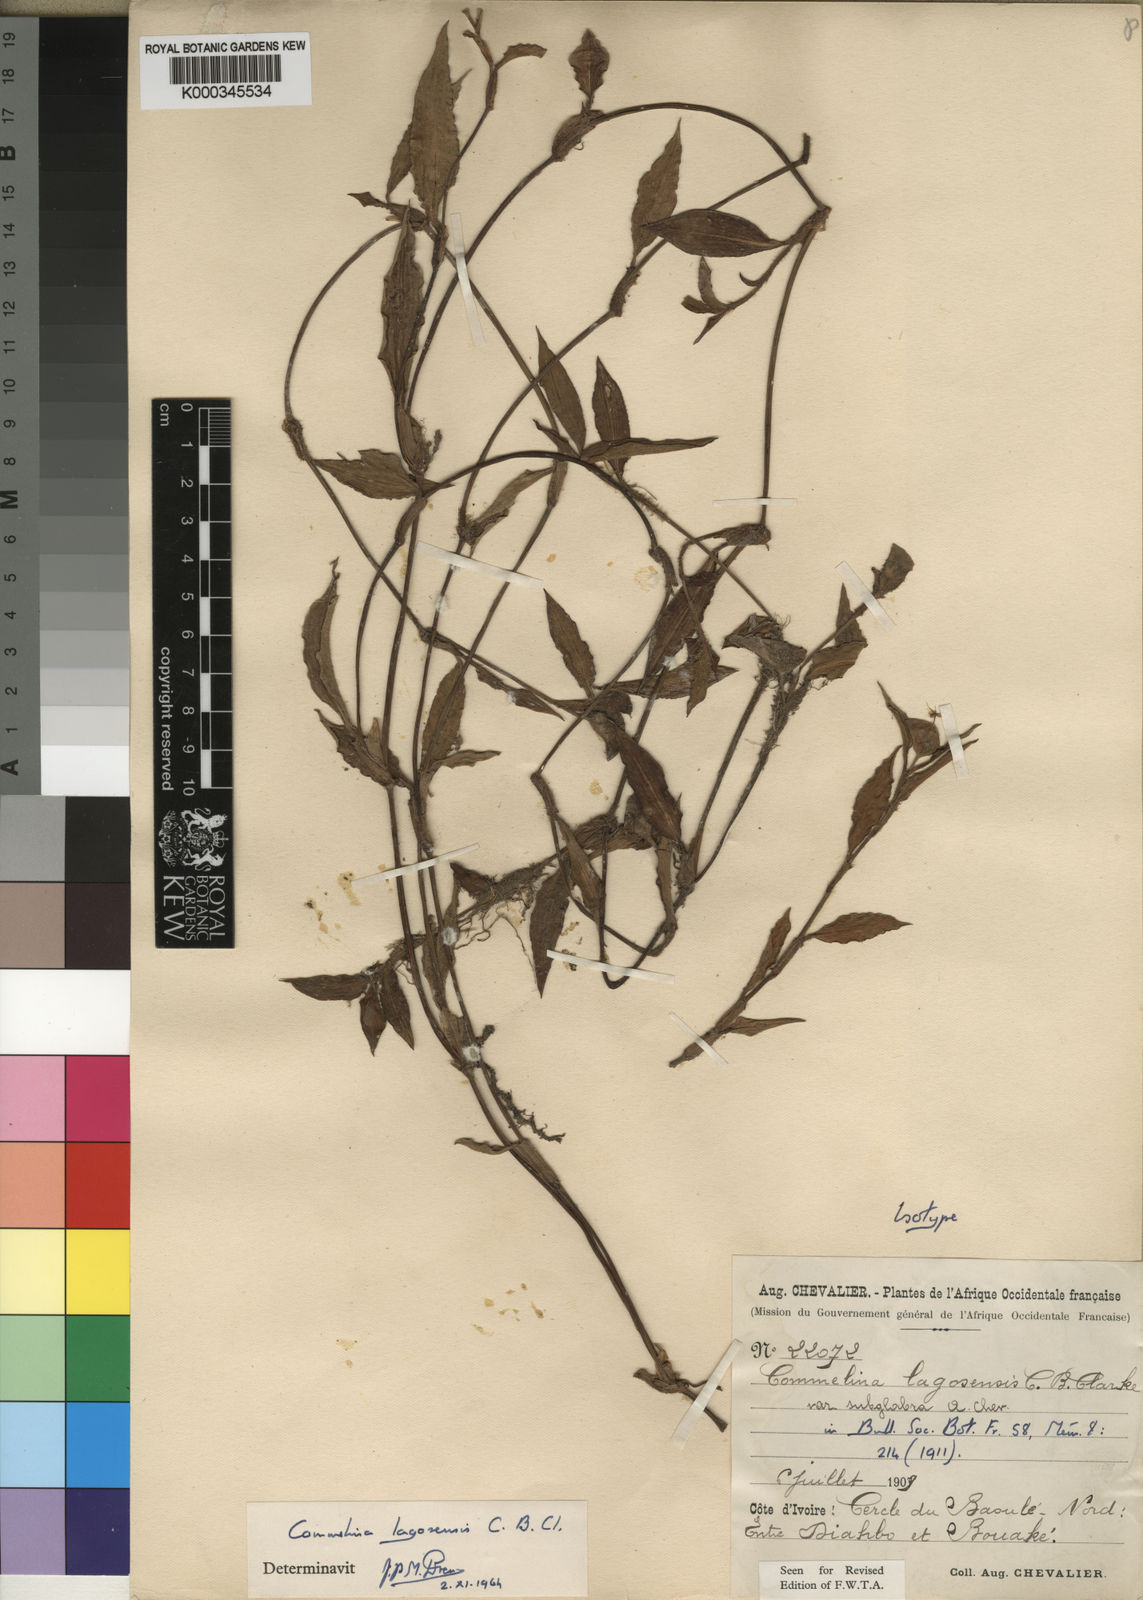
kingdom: Plantae
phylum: Tracheophyta
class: Liliopsida
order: Commelinales
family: Commelinaceae
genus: Commelina
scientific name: Commelina bracteosa
